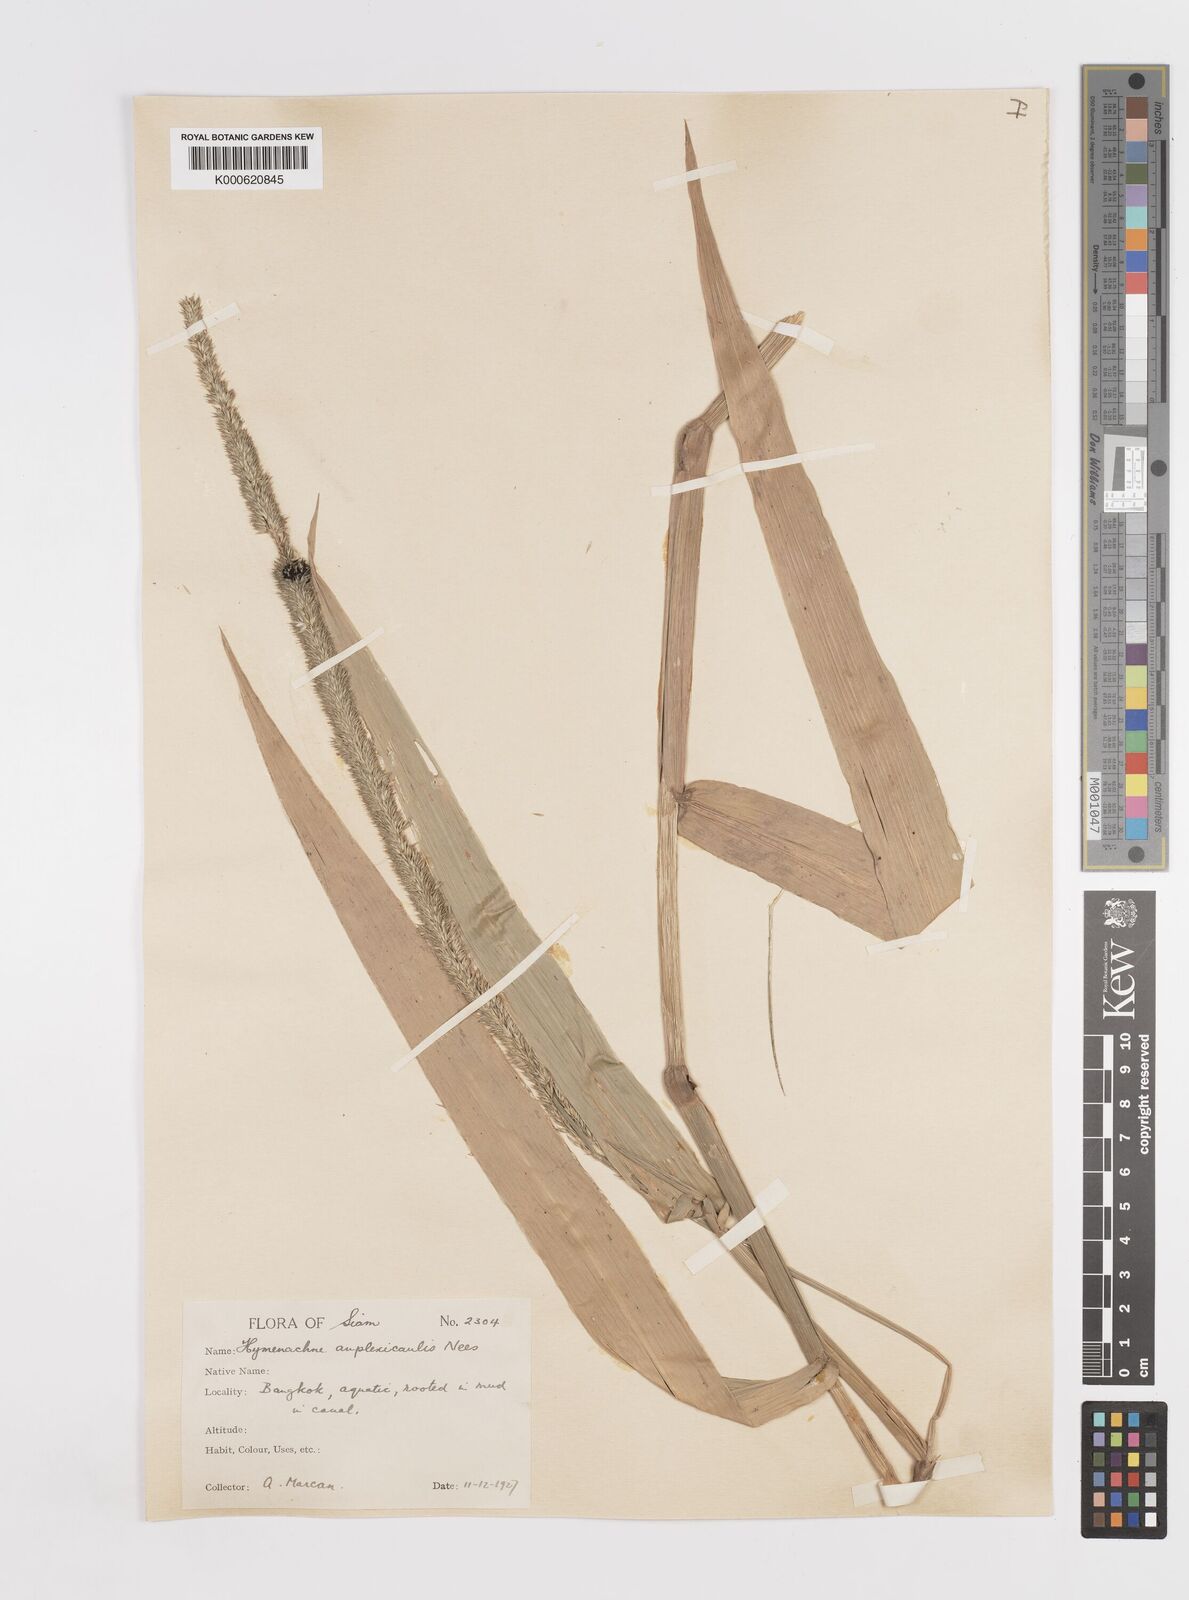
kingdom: Plantae
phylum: Tracheophyta
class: Liliopsida
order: Poales
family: Poaceae
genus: Hymenachne
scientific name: Hymenachne amplexicaulis
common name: Olive hymenachne
